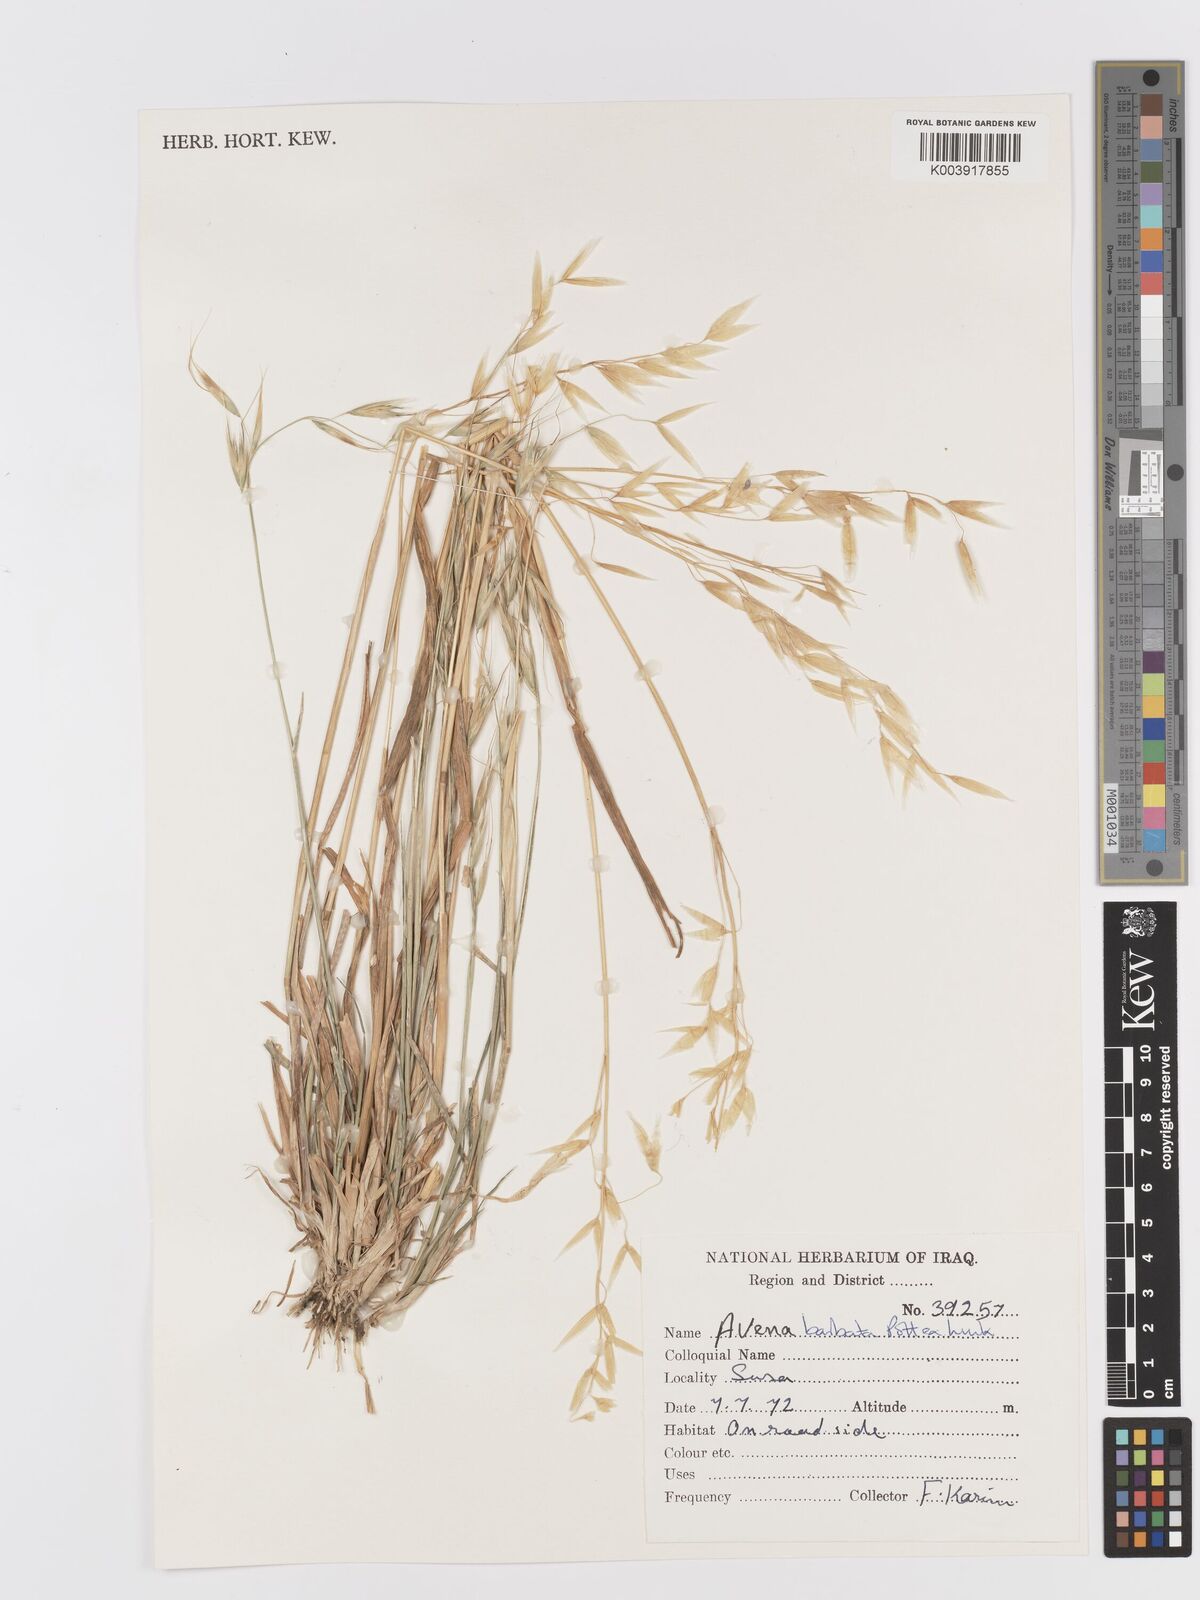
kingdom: Plantae
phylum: Tracheophyta
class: Liliopsida
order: Poales
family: Poaceae
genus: Avena
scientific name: Avena
